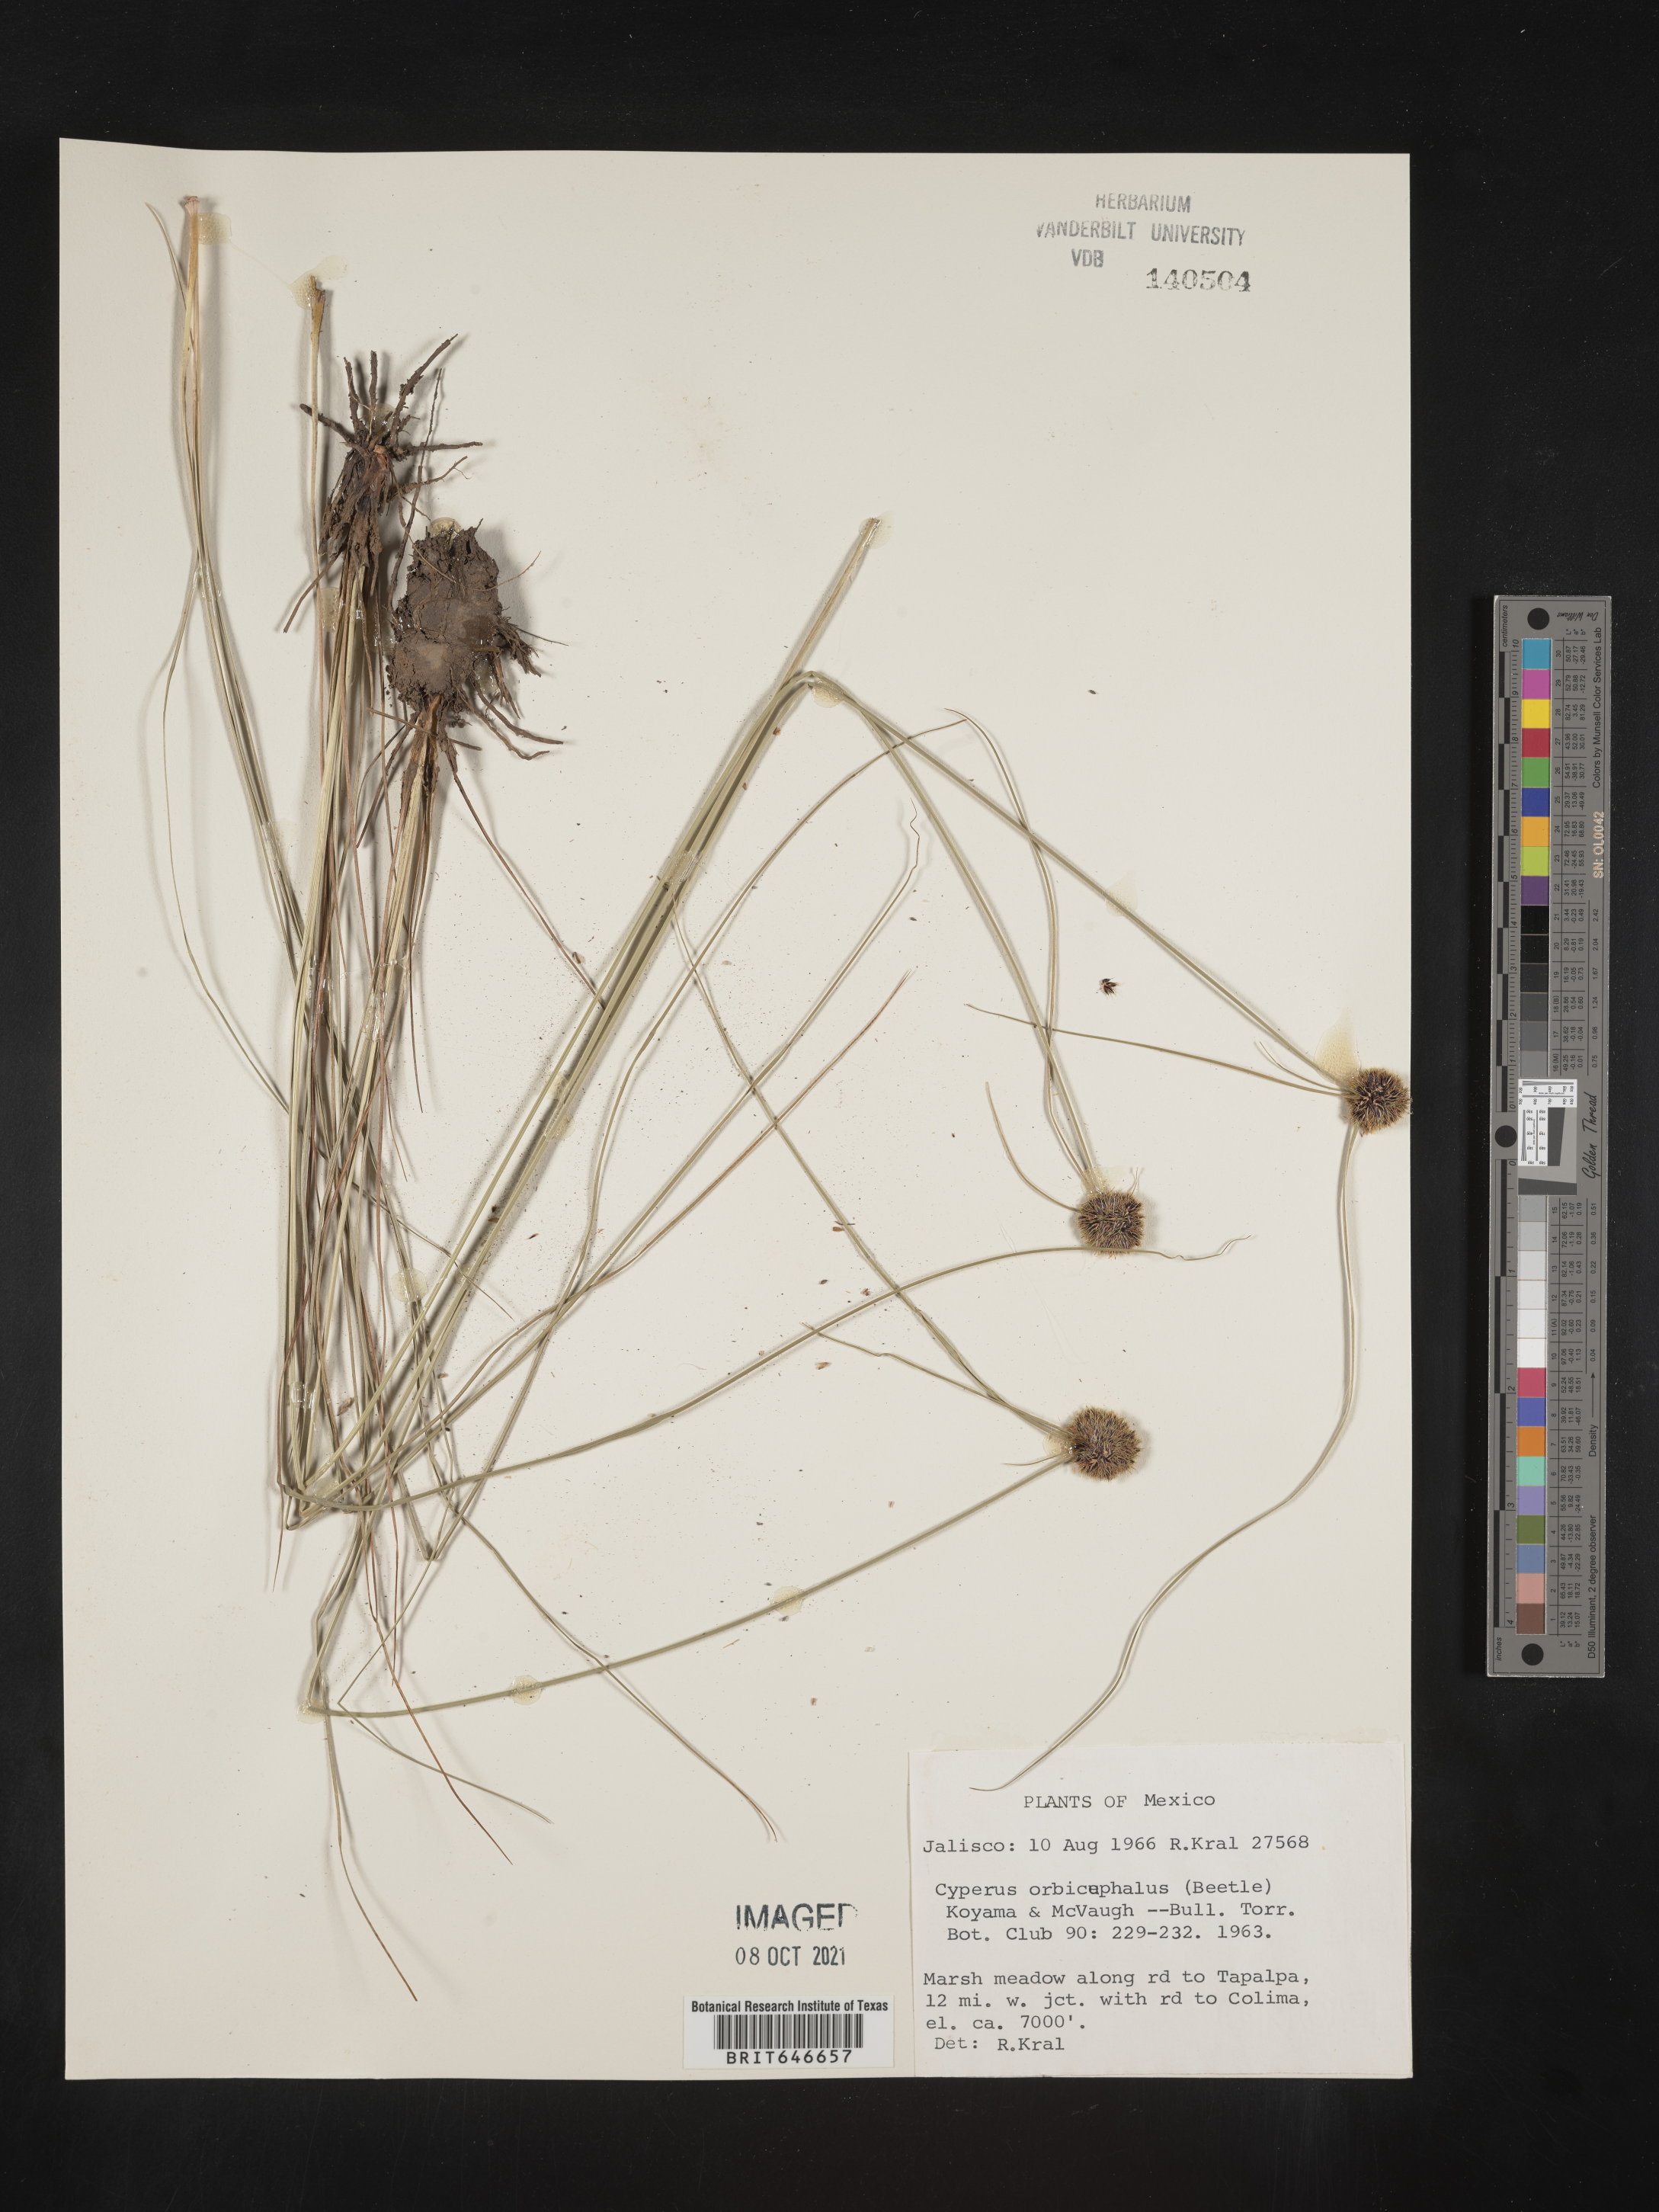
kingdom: Plantae
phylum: Tracheophyta
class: Liliopsida
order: Poales
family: Cyperaceae
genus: Cyperus
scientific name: Cyperus
